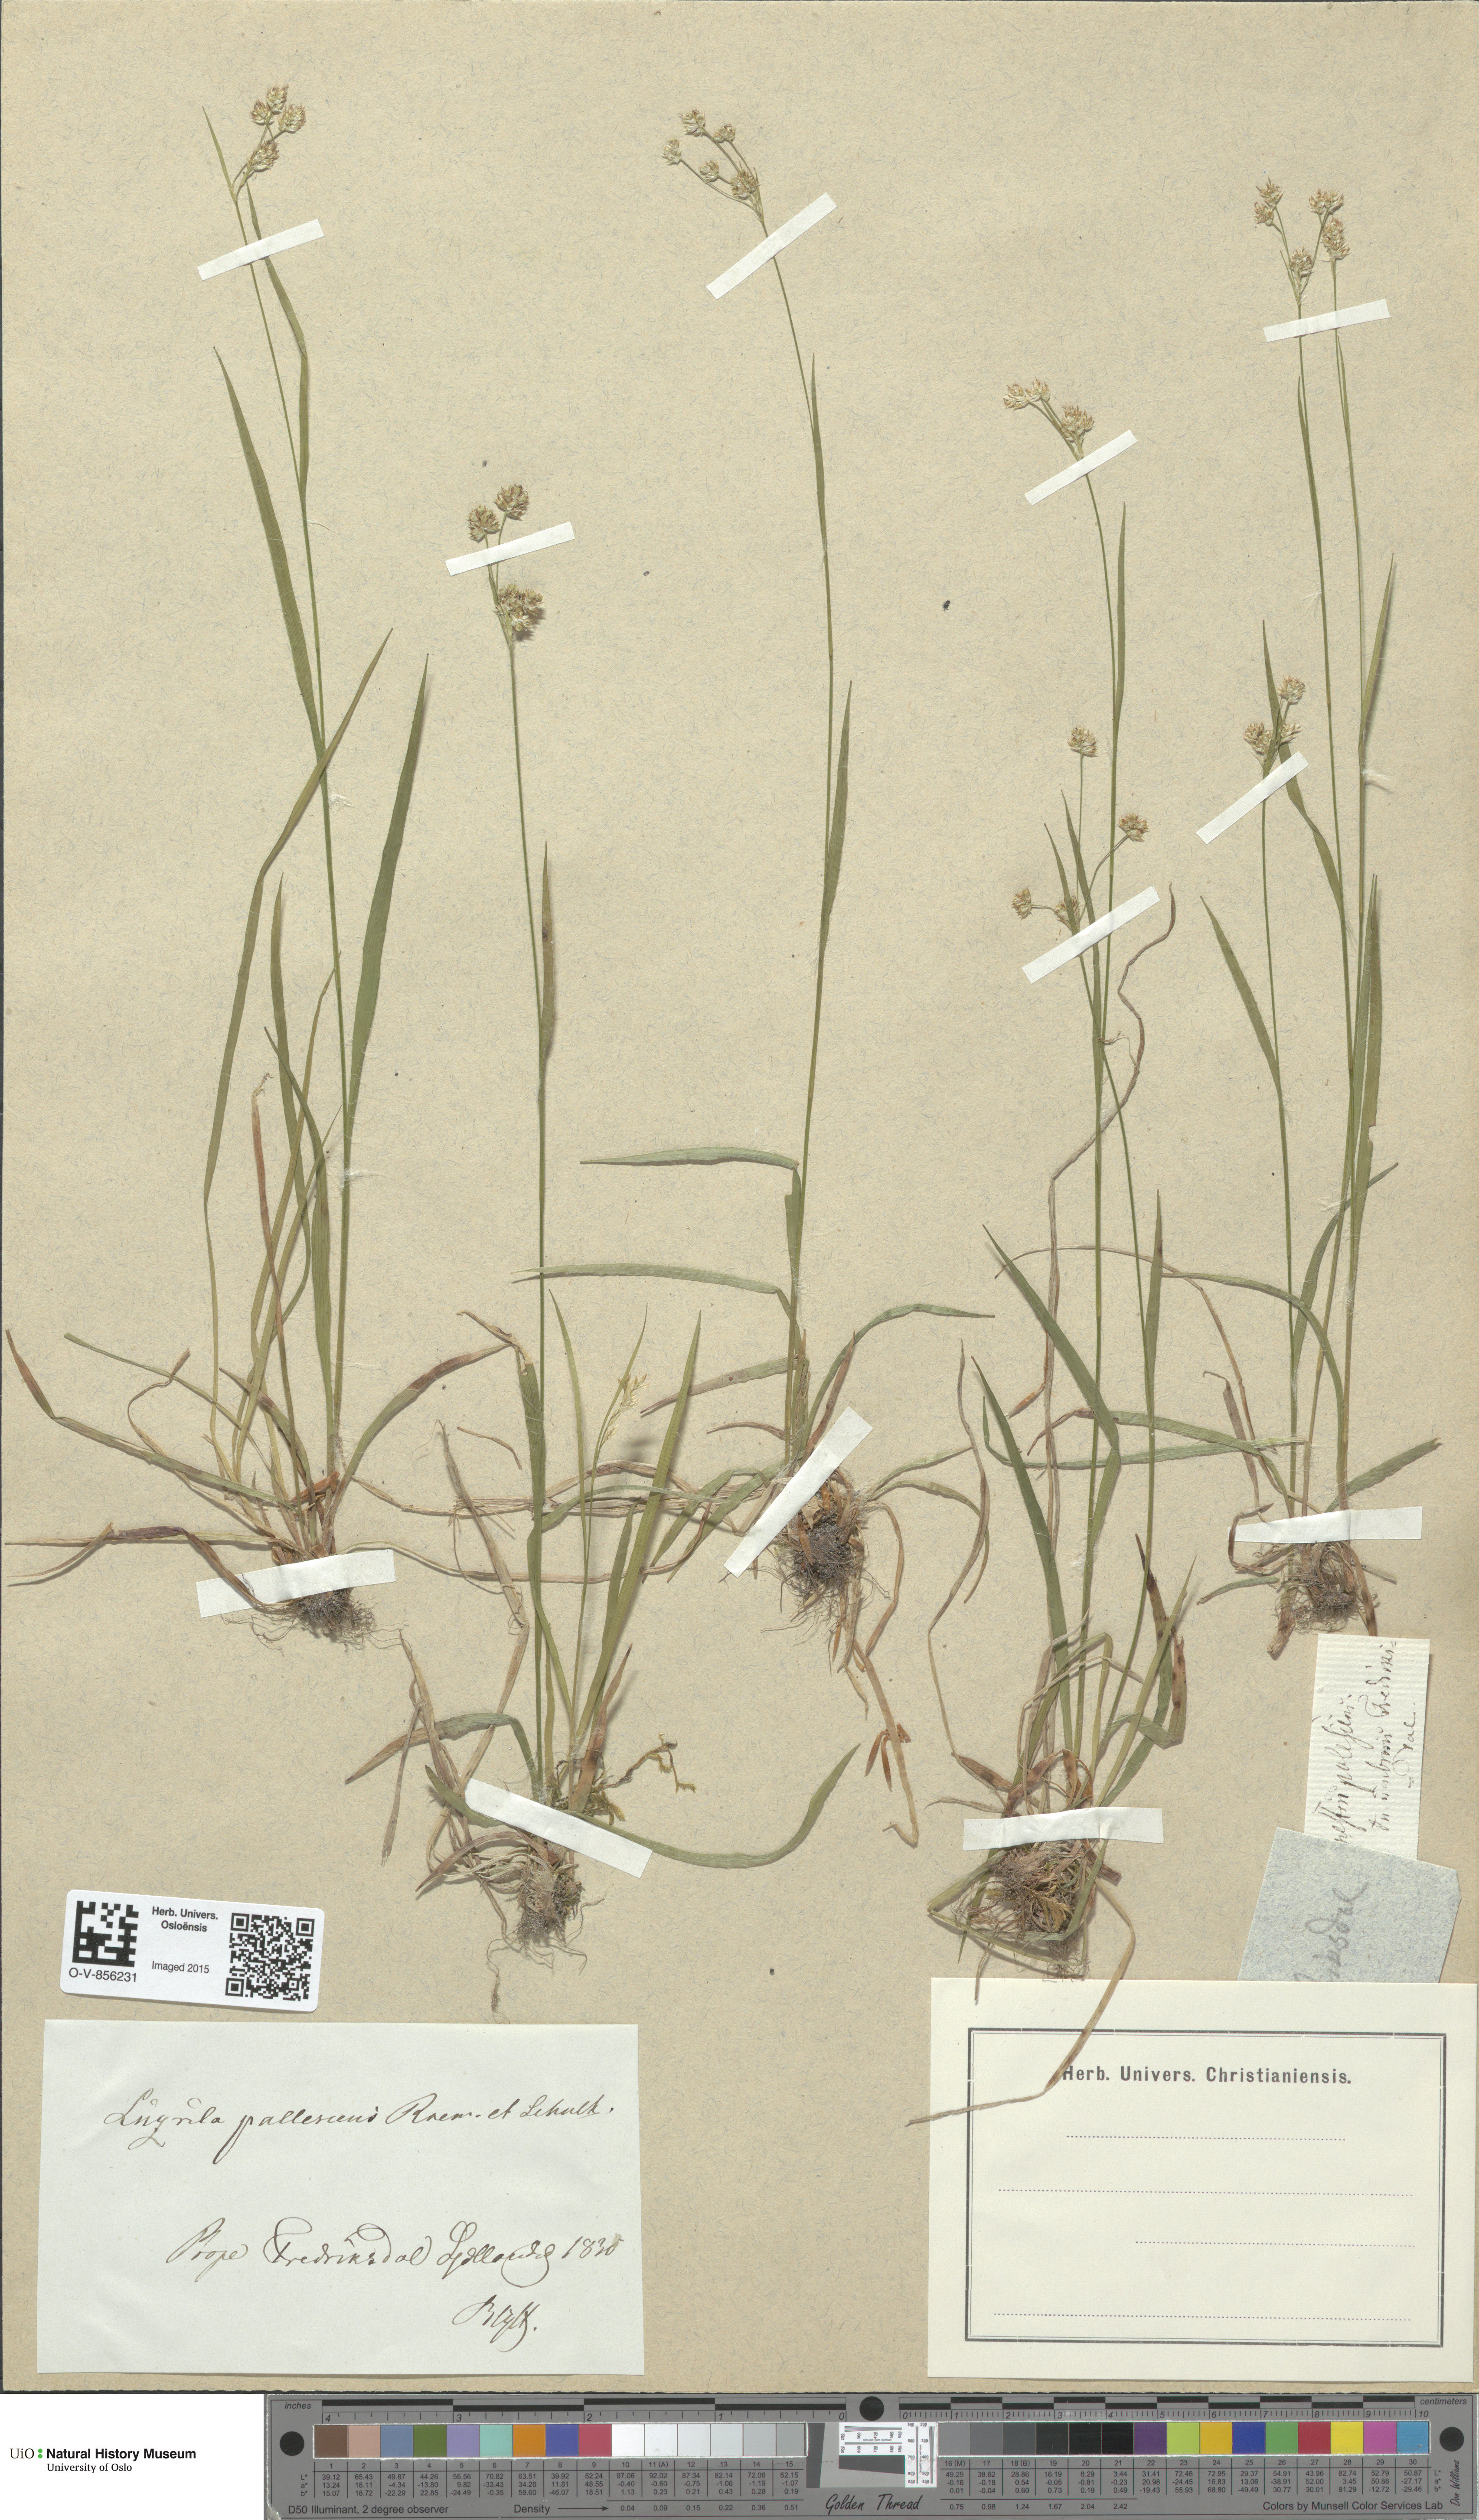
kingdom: Plantae
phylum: Tracheophyta
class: Liliopsida
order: Poales
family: Juncaceae
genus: Luzula
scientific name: Luzula pallescens
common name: Fen wood-rush
